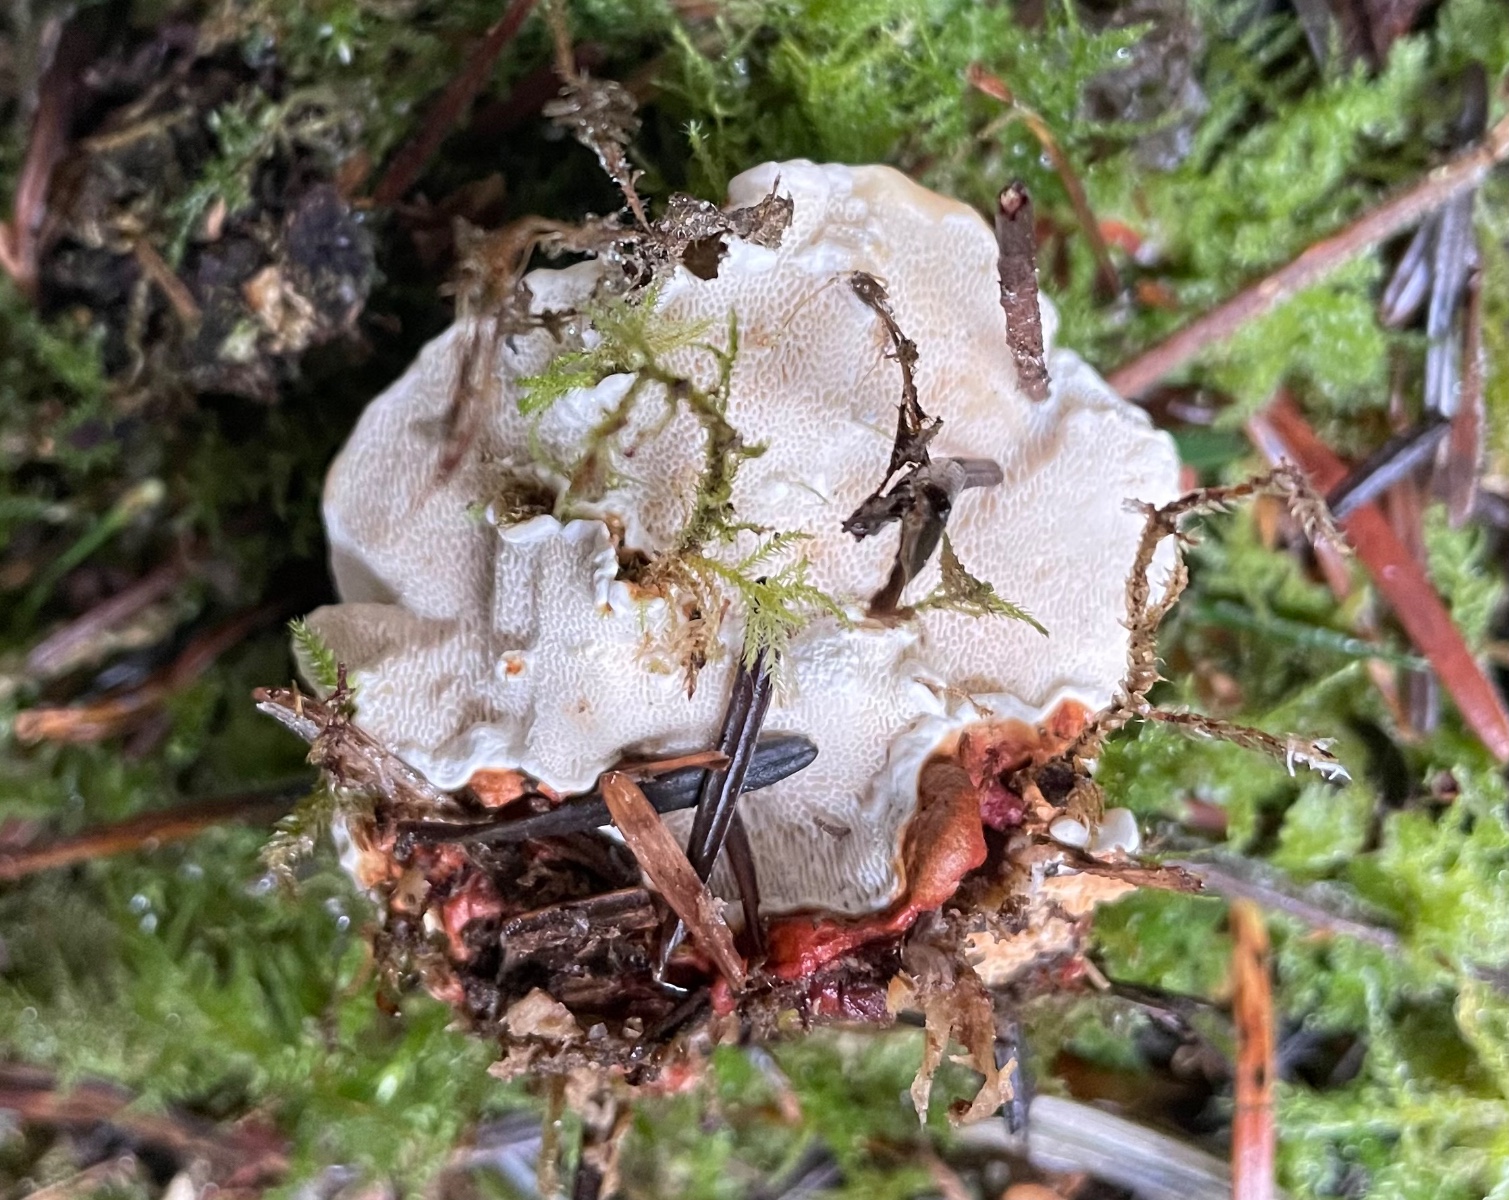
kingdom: Fungi
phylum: Basidiomycota
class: Agaricomycetes
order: Russulales
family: Bondarzewiaceae
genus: Heterobasidion
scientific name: Heterobasidion
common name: rodfordærver
